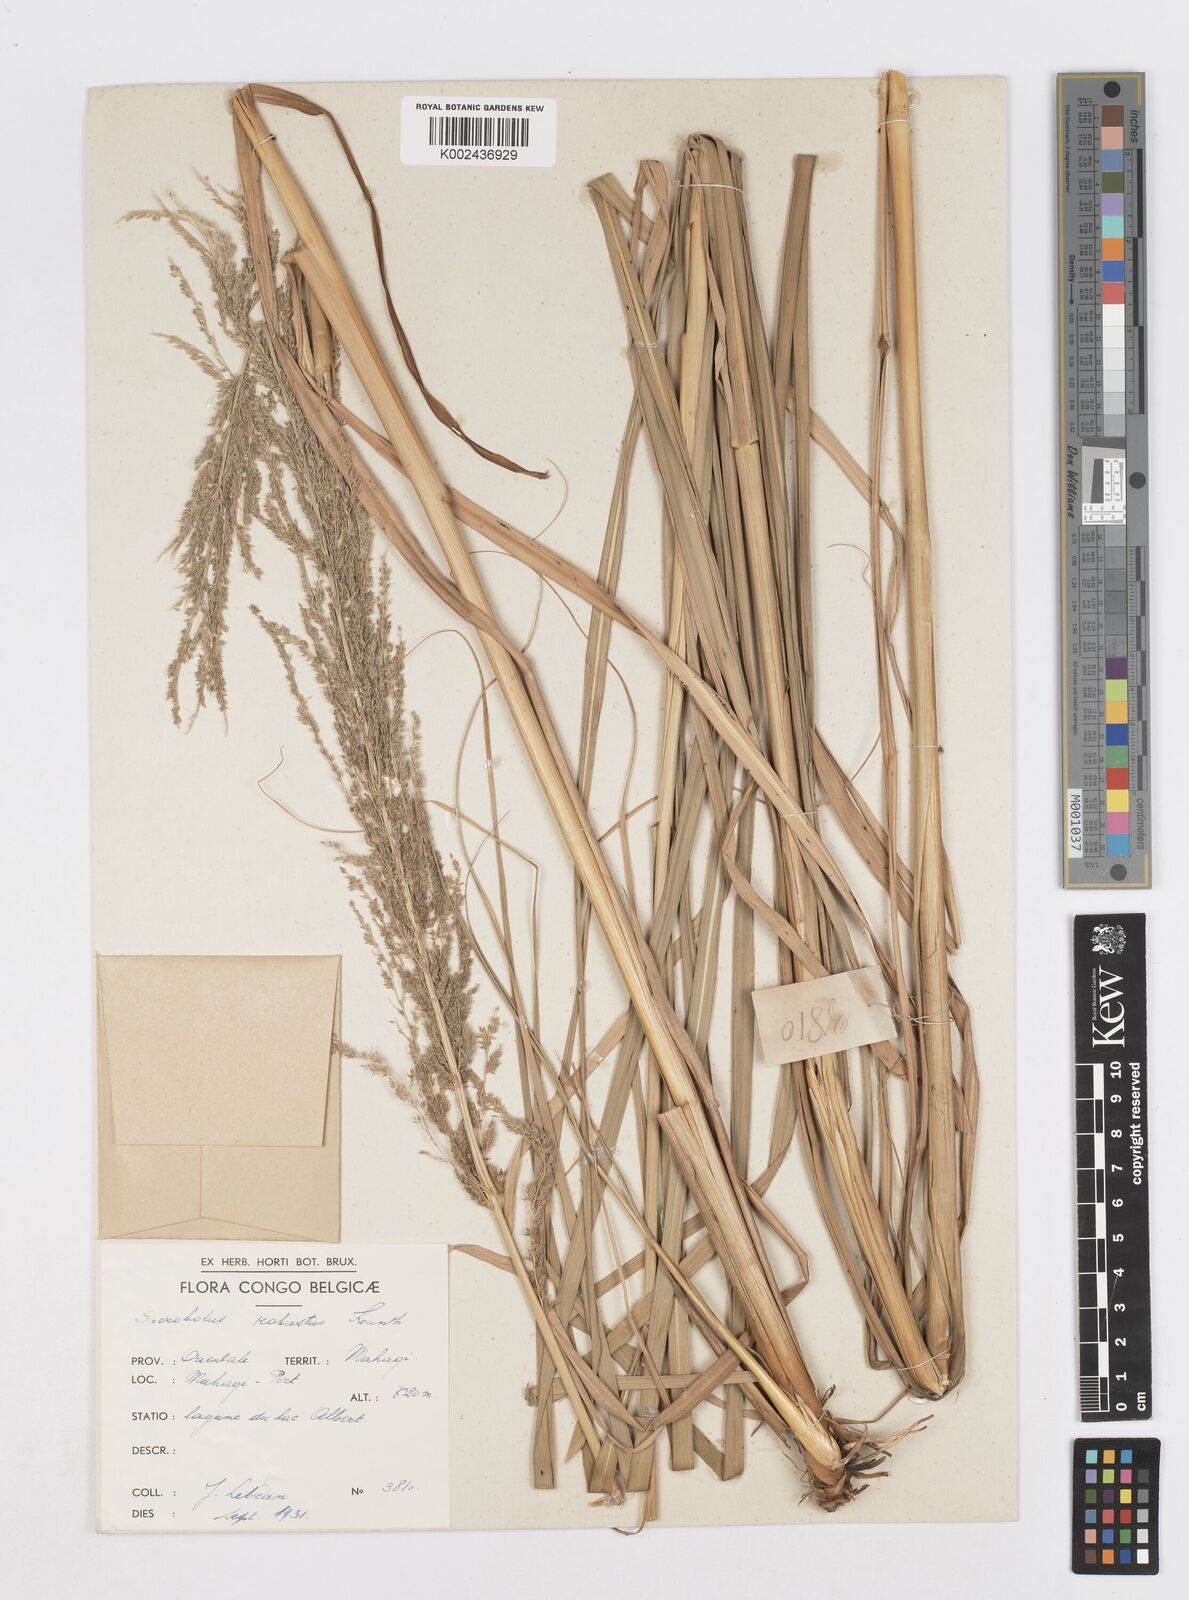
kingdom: Plantae
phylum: Tracheophyta
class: Liliopsida
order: Poales
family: Poaceae
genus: Sporobolus
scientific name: Sporobolus consimilis
